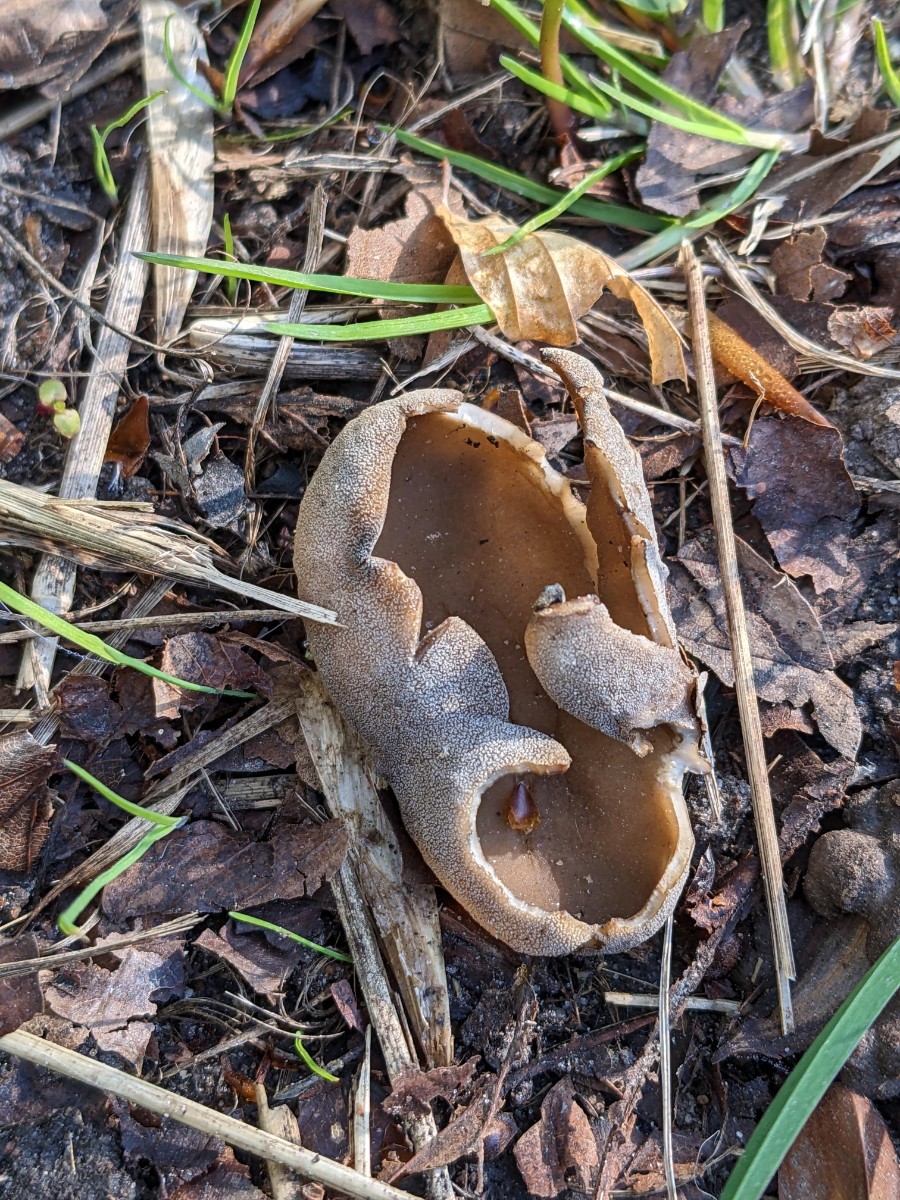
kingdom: Fungi
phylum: Ascomycota
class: Pezizomycetes
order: Pezizales
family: Helvellaceae
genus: Helvella
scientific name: Helvella acetabulum
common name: pokal-foldhat
